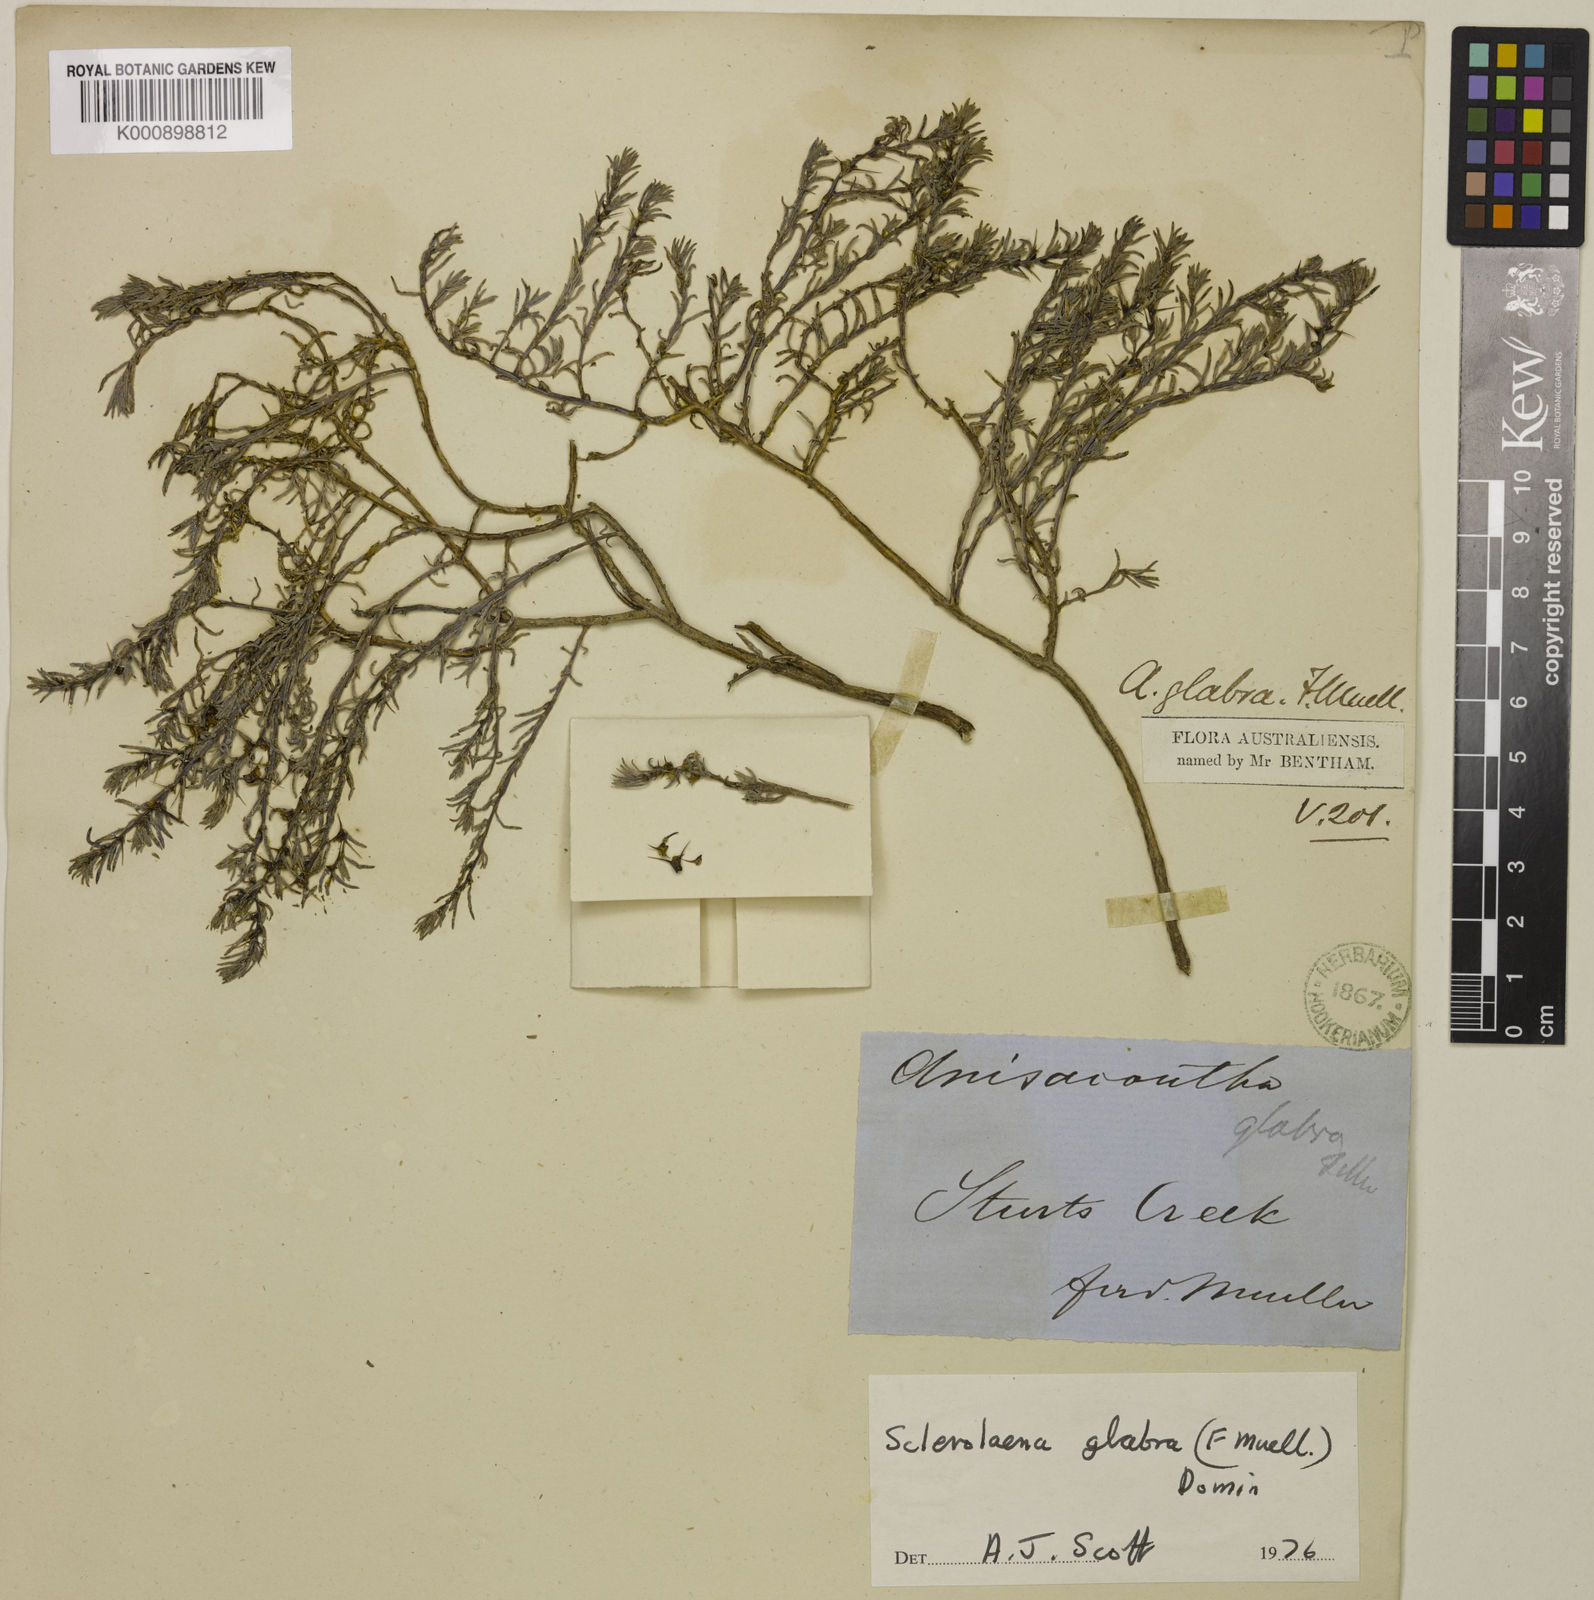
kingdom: Plantae
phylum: Tracheophyta
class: Magnoliopsida
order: Caryophyllales
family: Amaranthaceae
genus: Sclerolaena
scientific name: Sclerolaena glabra
